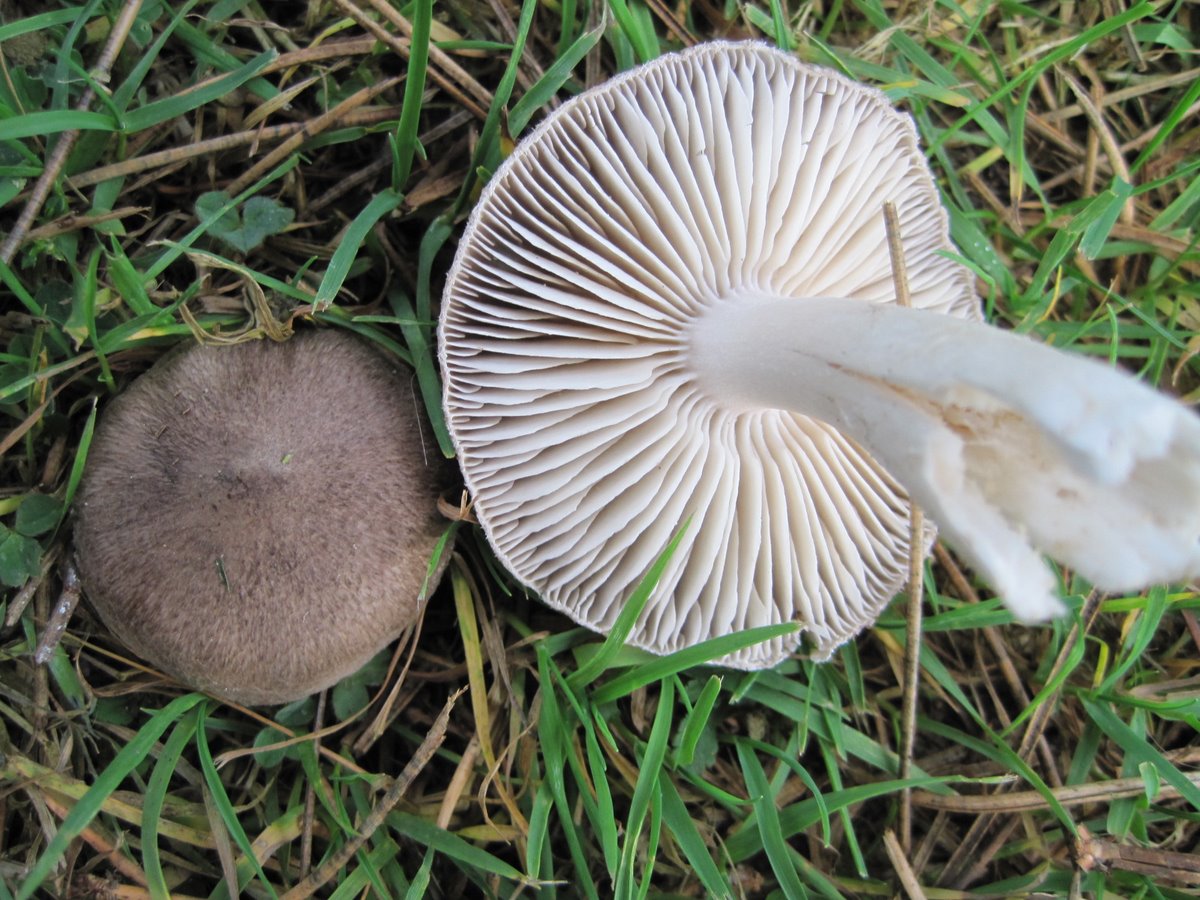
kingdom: Fungi
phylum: Basidiomycota
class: Agaricomycetes
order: Agaricales
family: Tricholomataceae
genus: Tricholoma
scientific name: Tricholoma terreum
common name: jordfarvet ridderhat
